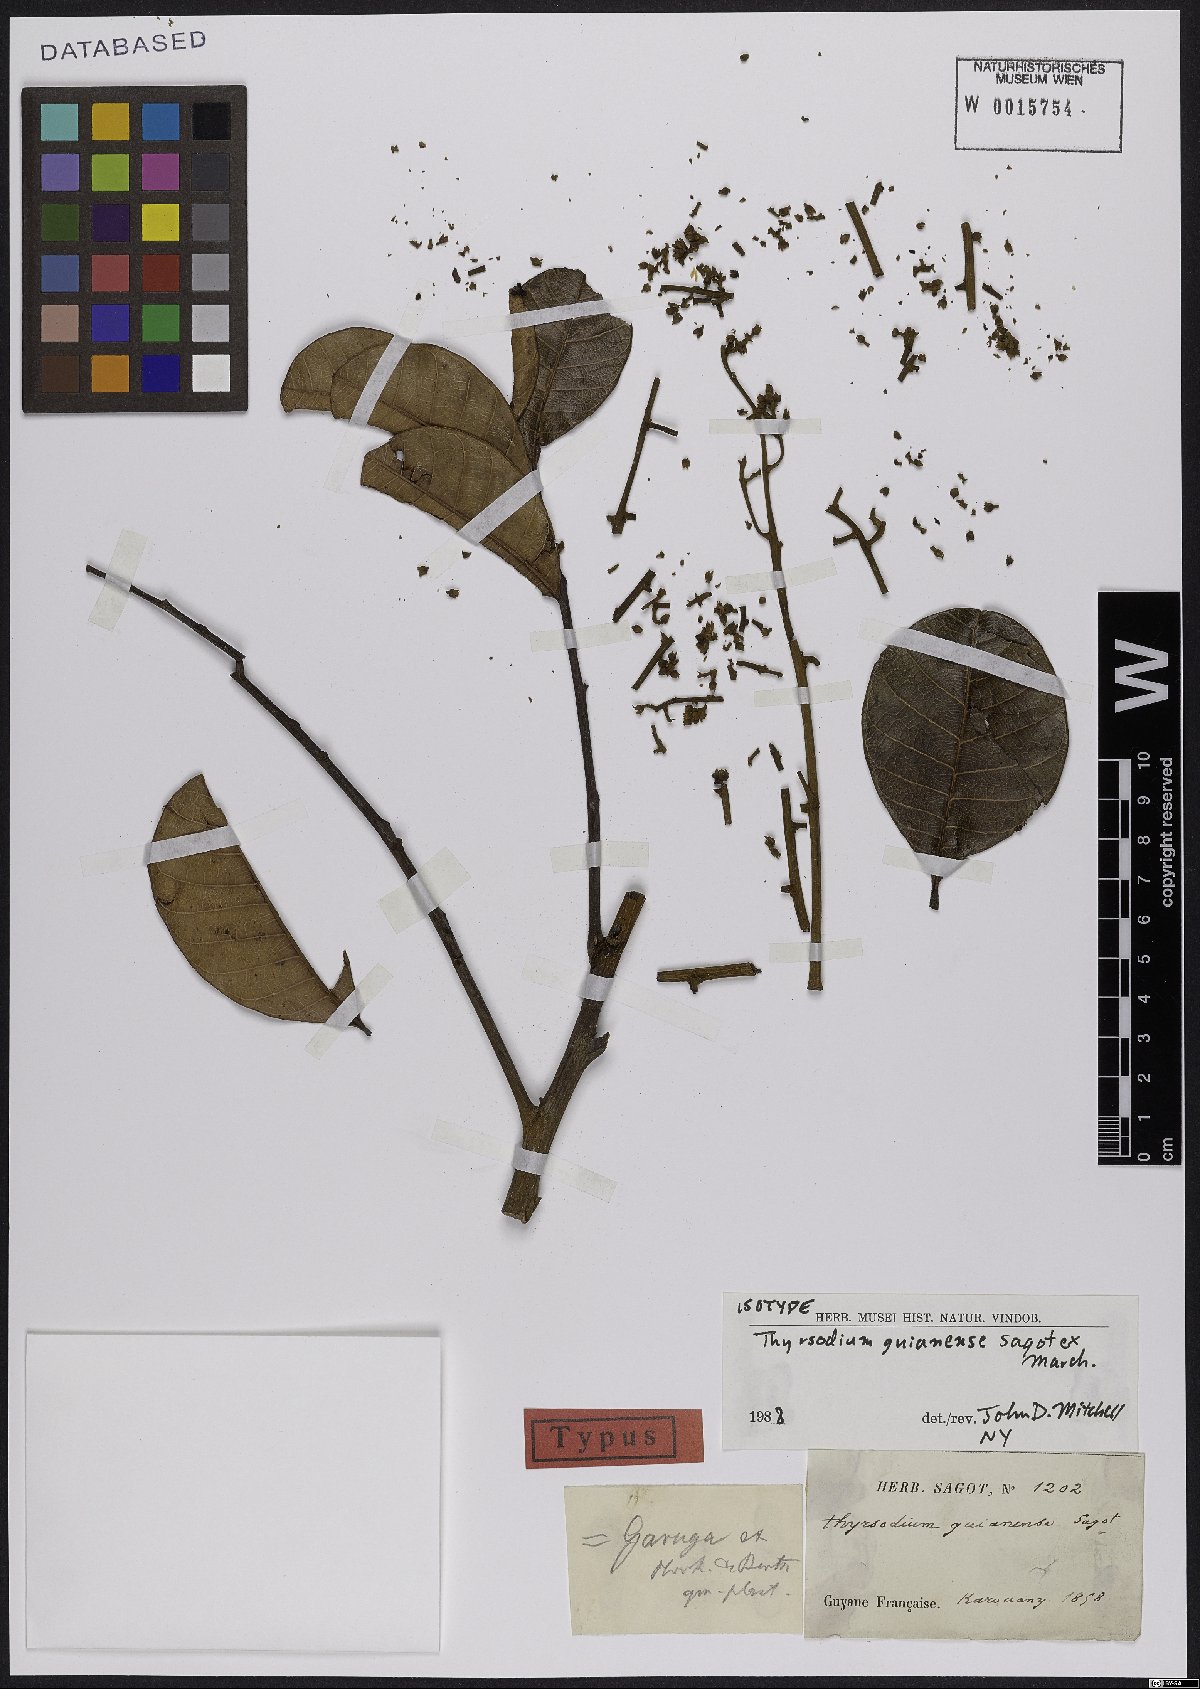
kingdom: Plantae
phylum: Tracheophyta
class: Magnoliopsida
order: Sapindales
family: Anacardiaceae
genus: Thyrsodium
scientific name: Thyrsodium guianense
